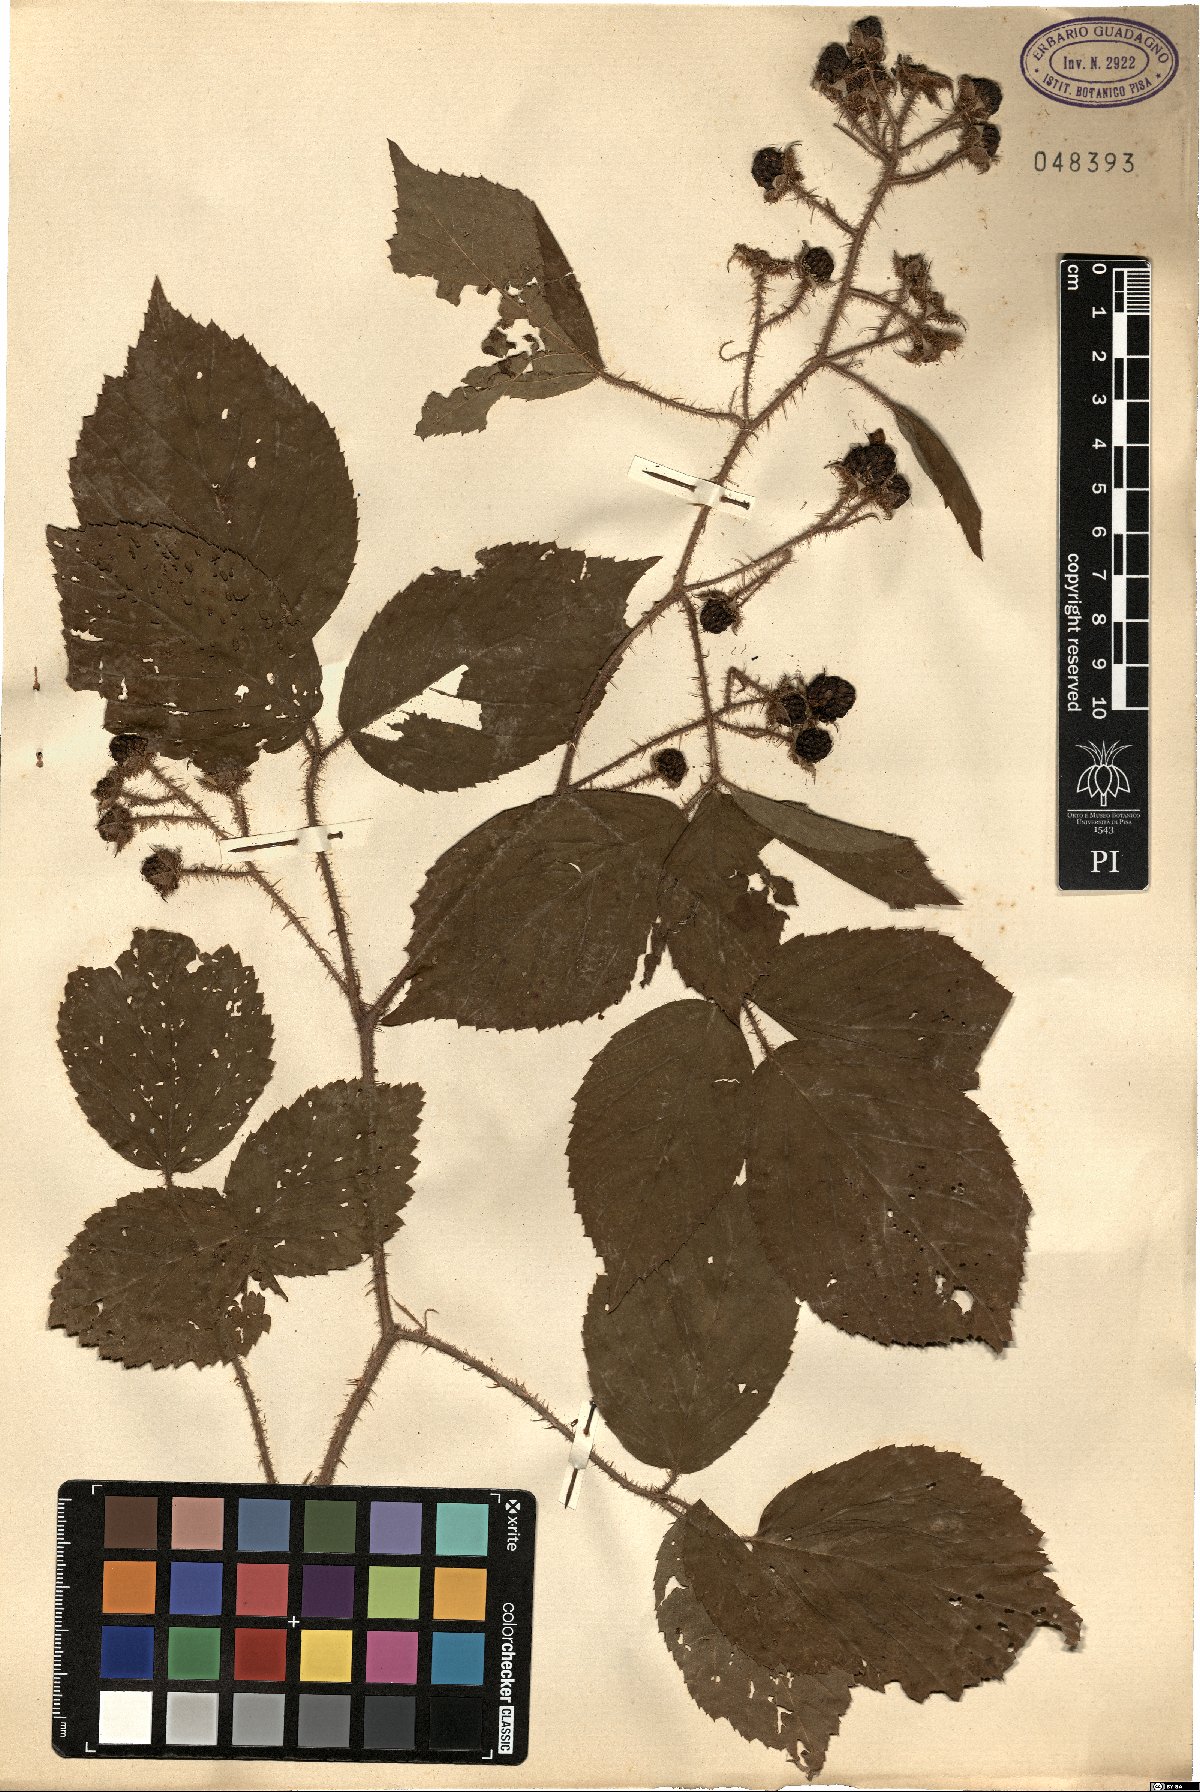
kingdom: Plantae
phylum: Tracheophyta
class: Magnoliopsida
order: Rosales
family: Rosaceae
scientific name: Rosaceae
